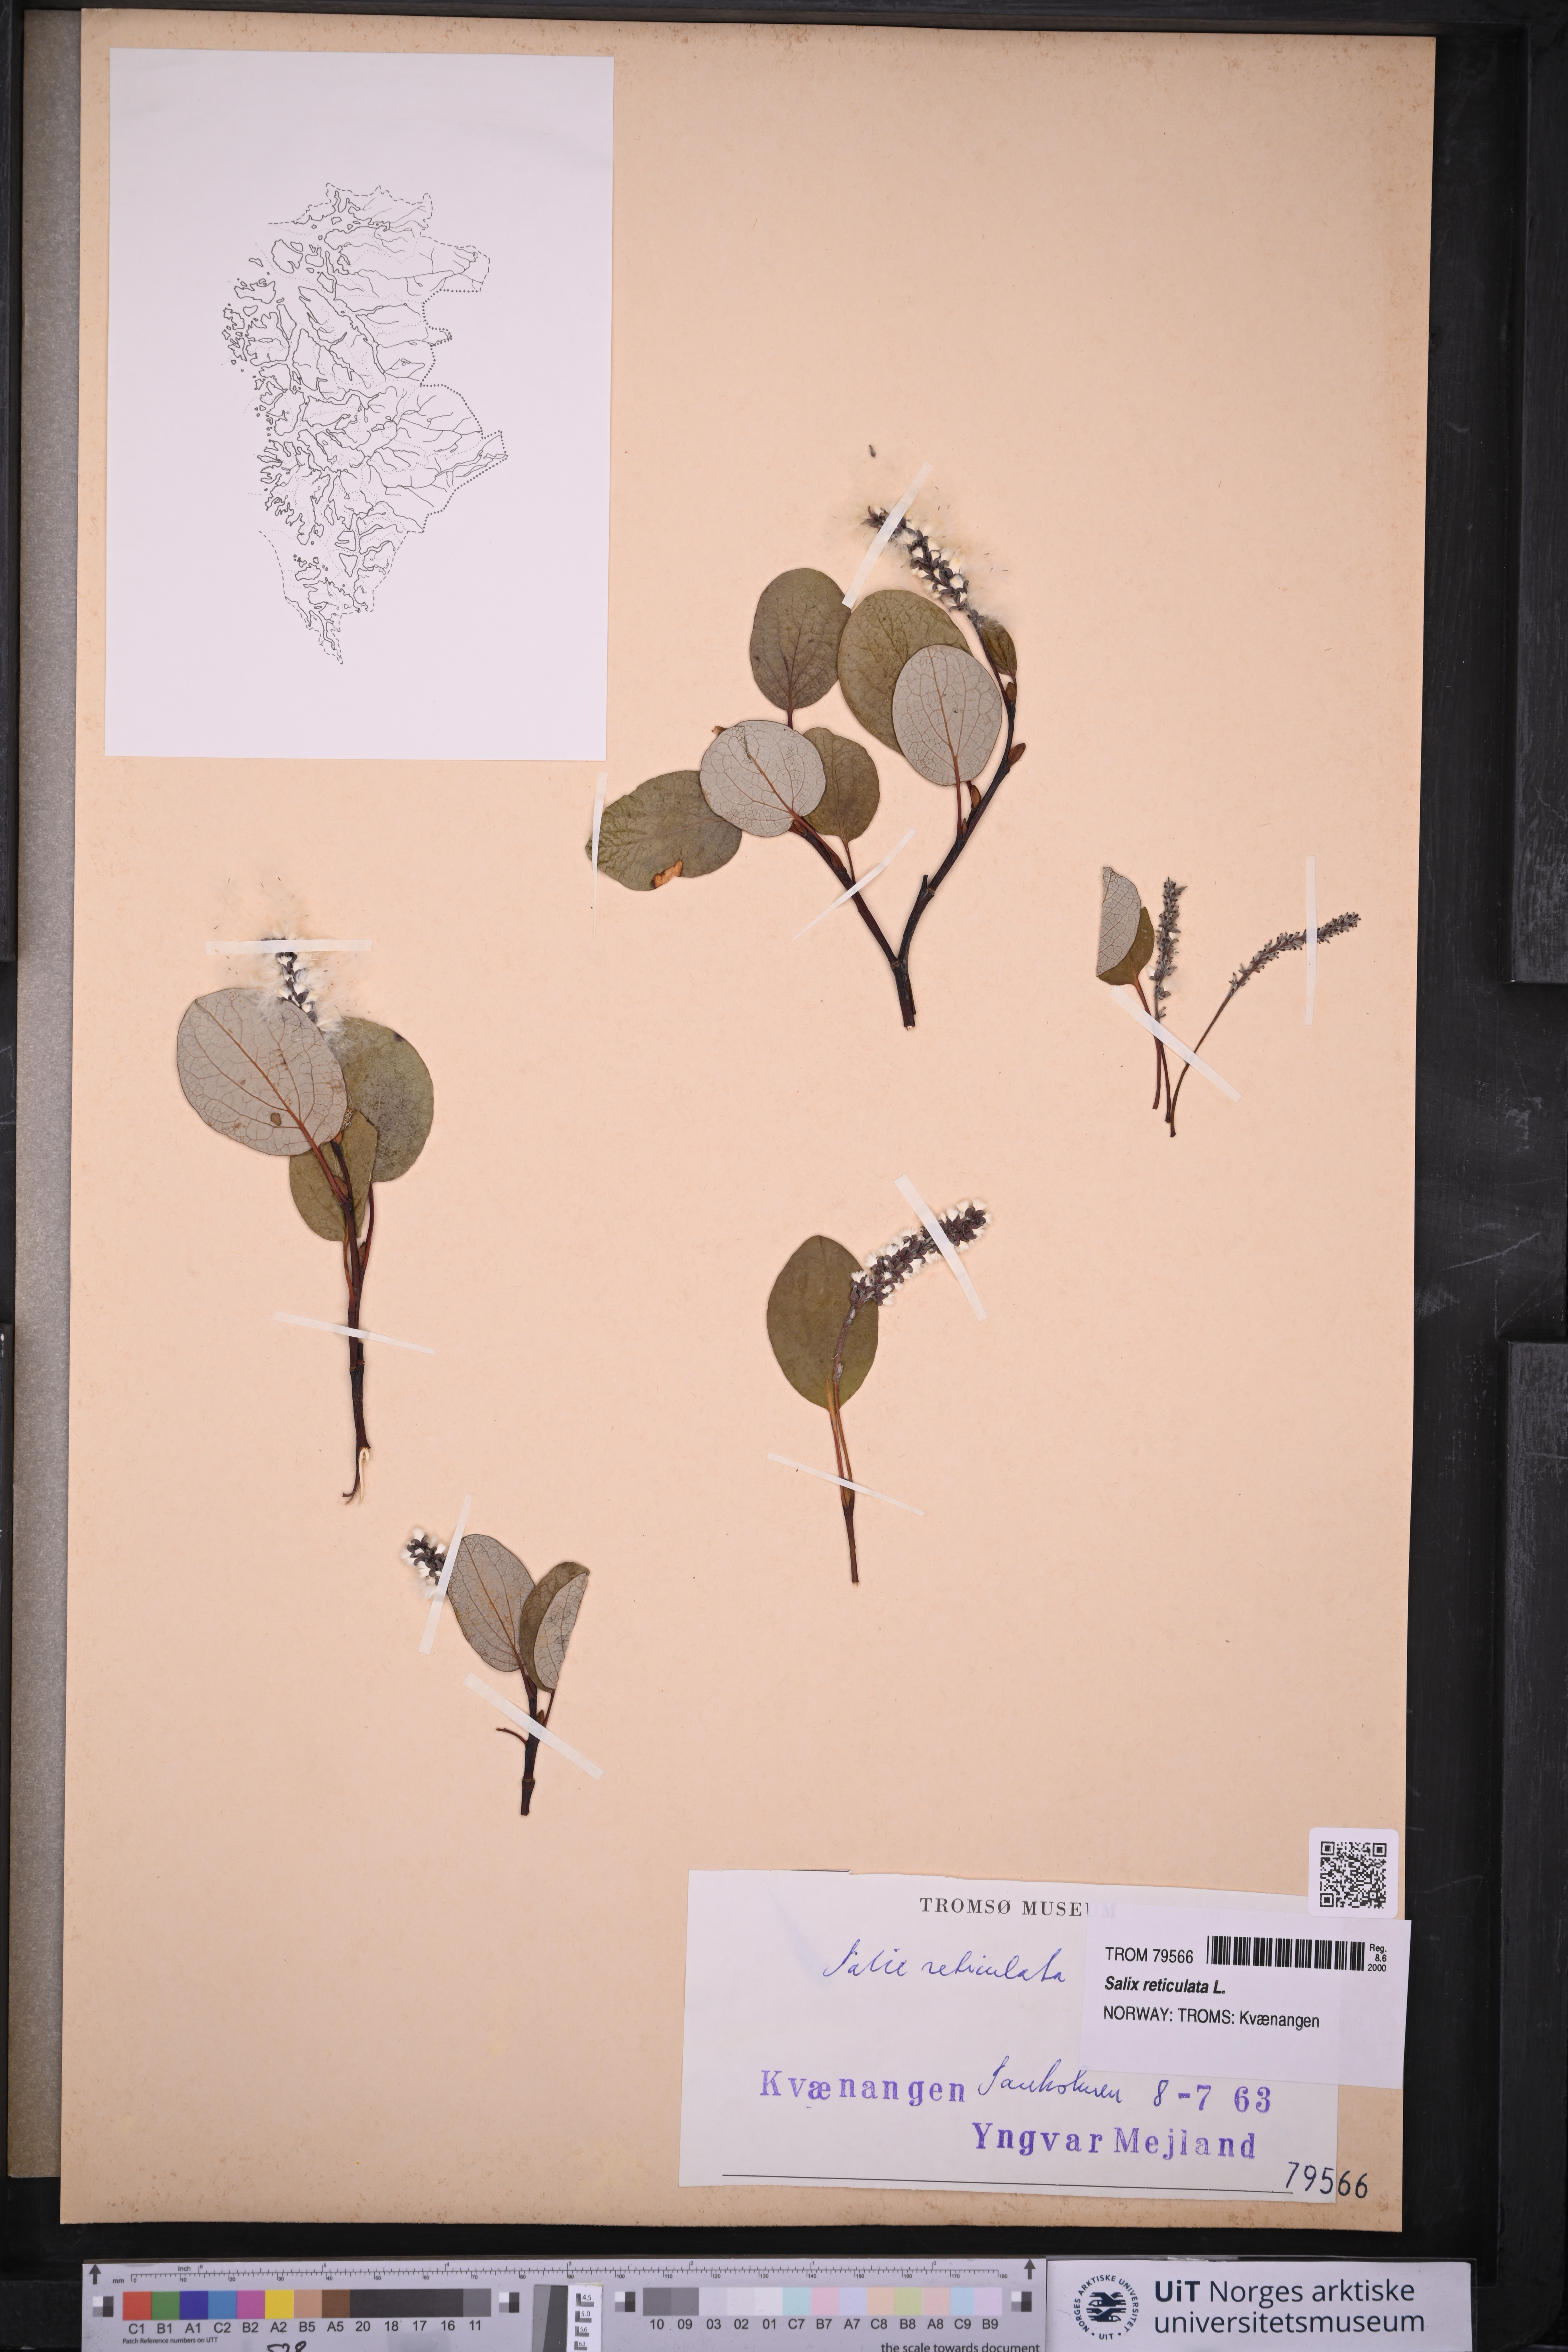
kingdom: Plantae
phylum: Tracheophyta
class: Magnoliopsida
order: Malpighiales
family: Salicaceae
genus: Salix
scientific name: Salix reticulata
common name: Net-leaved willow
